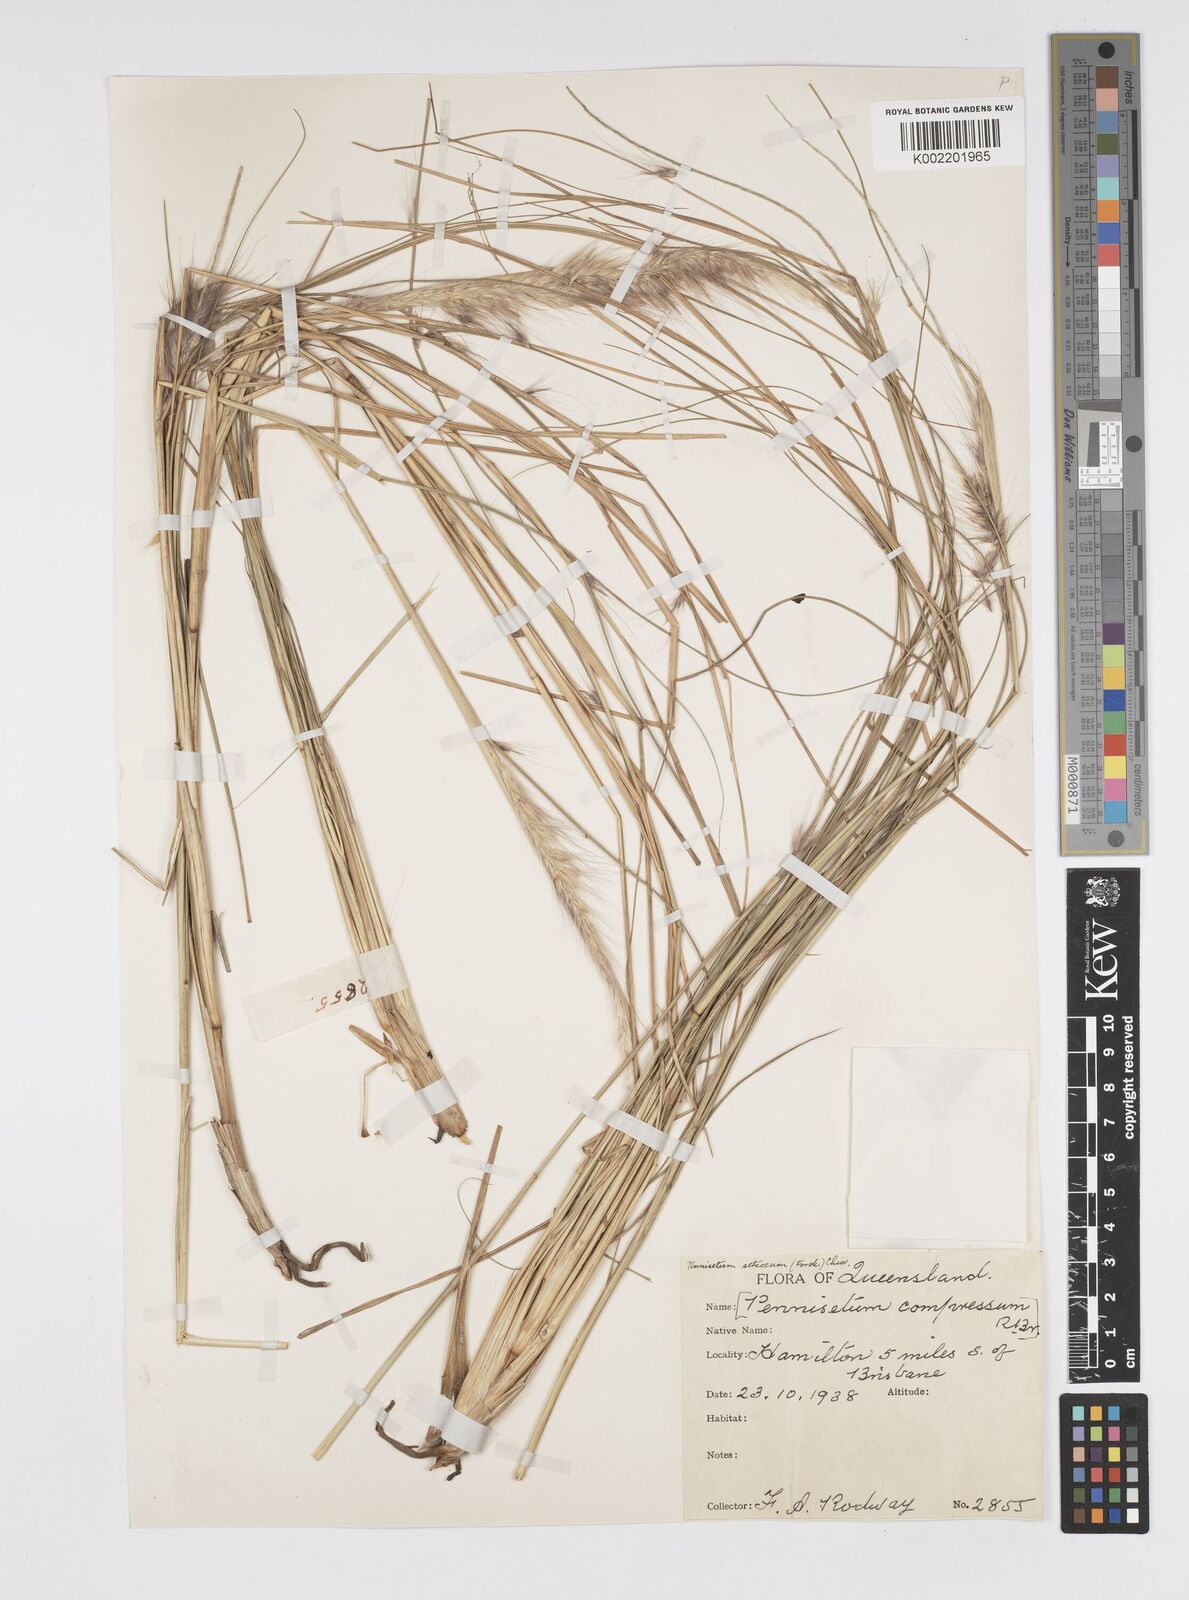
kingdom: Plantae
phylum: Tracheophyta
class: Liliopsida
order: Poales
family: Poaceae
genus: Cenchrus
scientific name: Cenchrus setaceus
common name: Crimson fountaingrass
